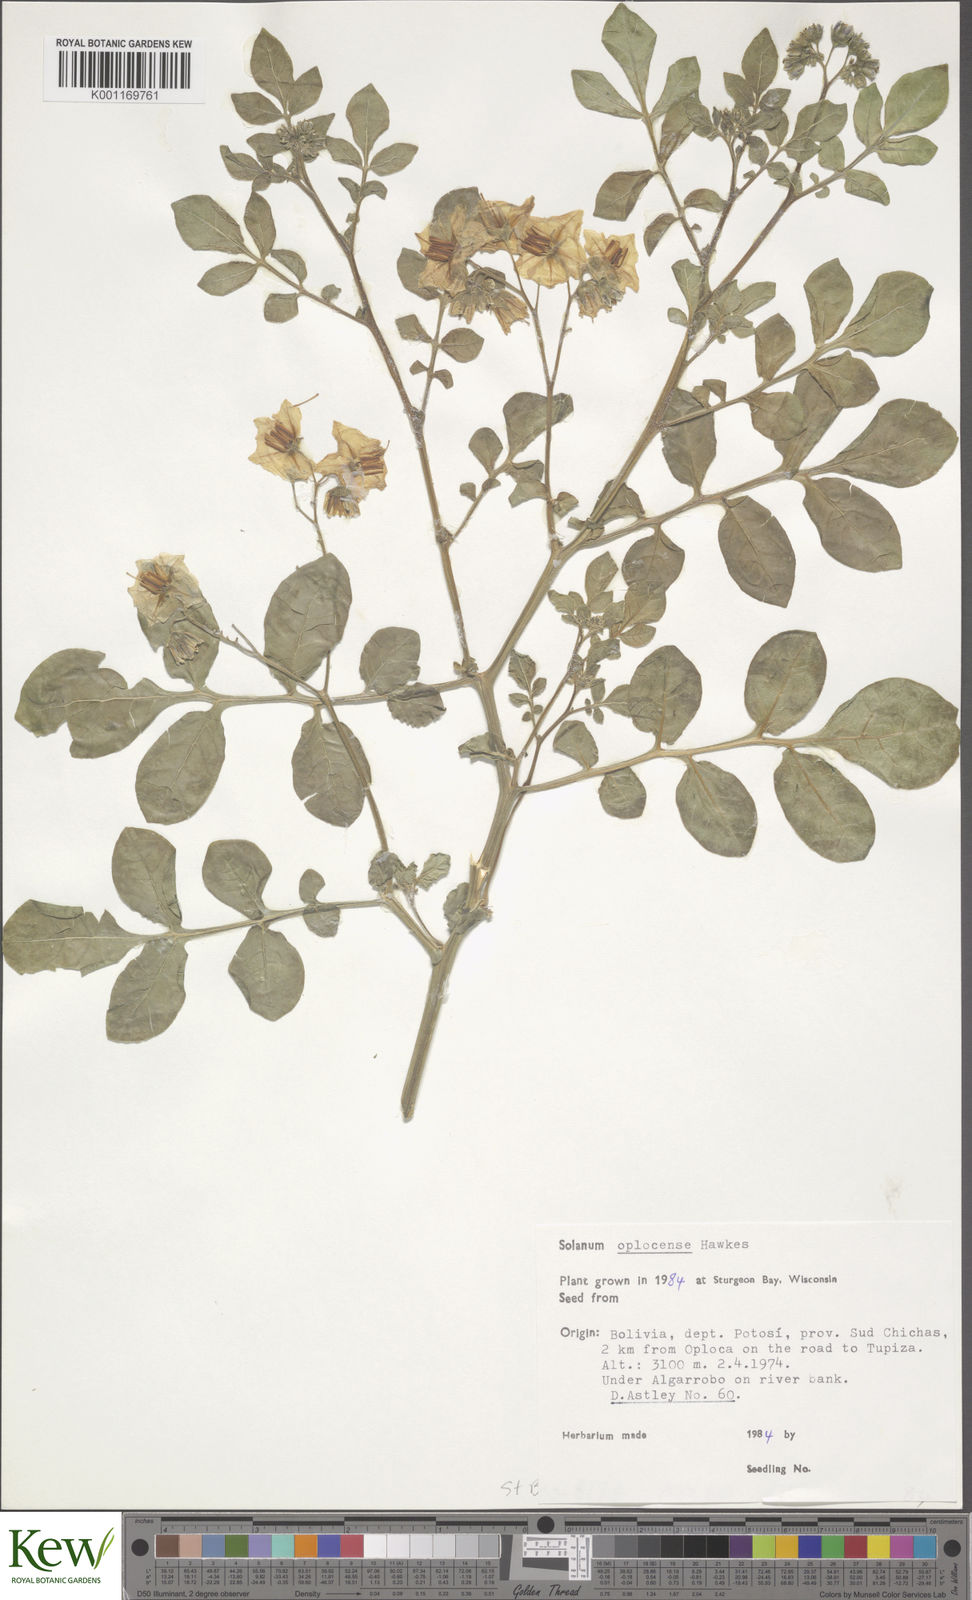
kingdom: Plantae
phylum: Tracheophyta
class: Magnoliopsida
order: Solanales
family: Solanaceae
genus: Solanum
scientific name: Solanum brevicaule
